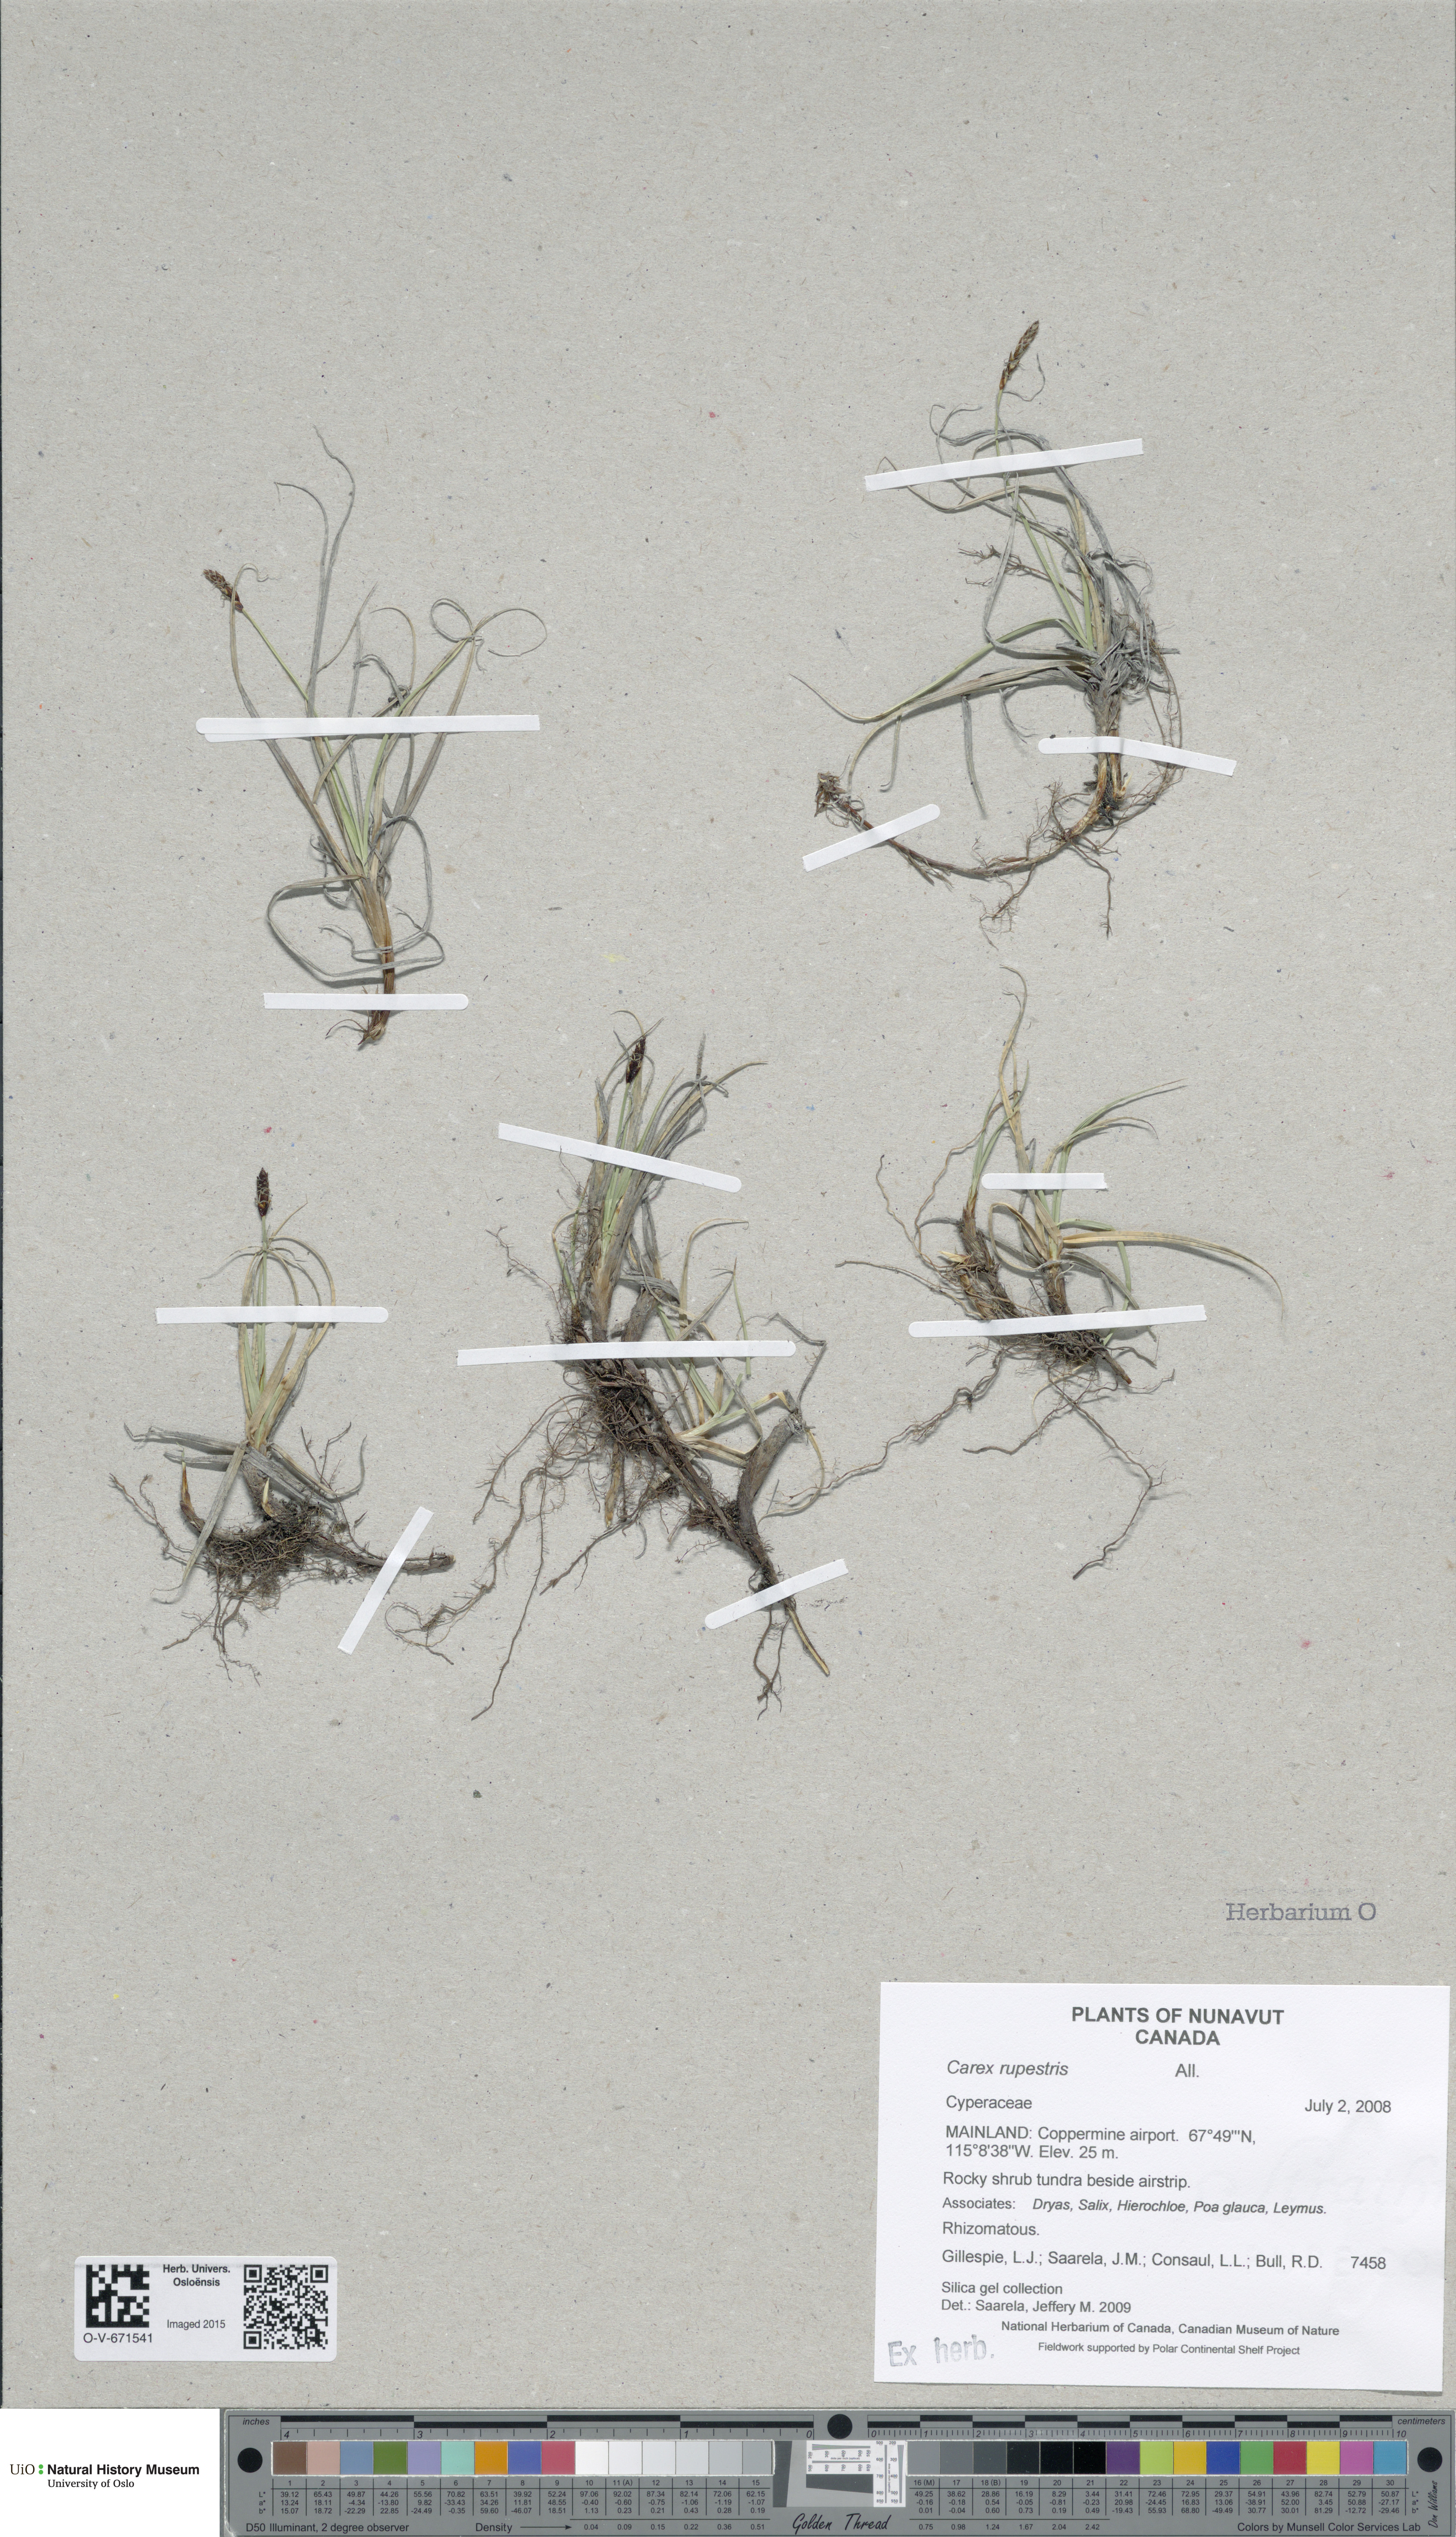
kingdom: Plantae
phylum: Tracheophyta
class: Liliopsida
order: Poales
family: Cyperaceae
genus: Carex
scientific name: Carex rupestris
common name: Rock sedge
